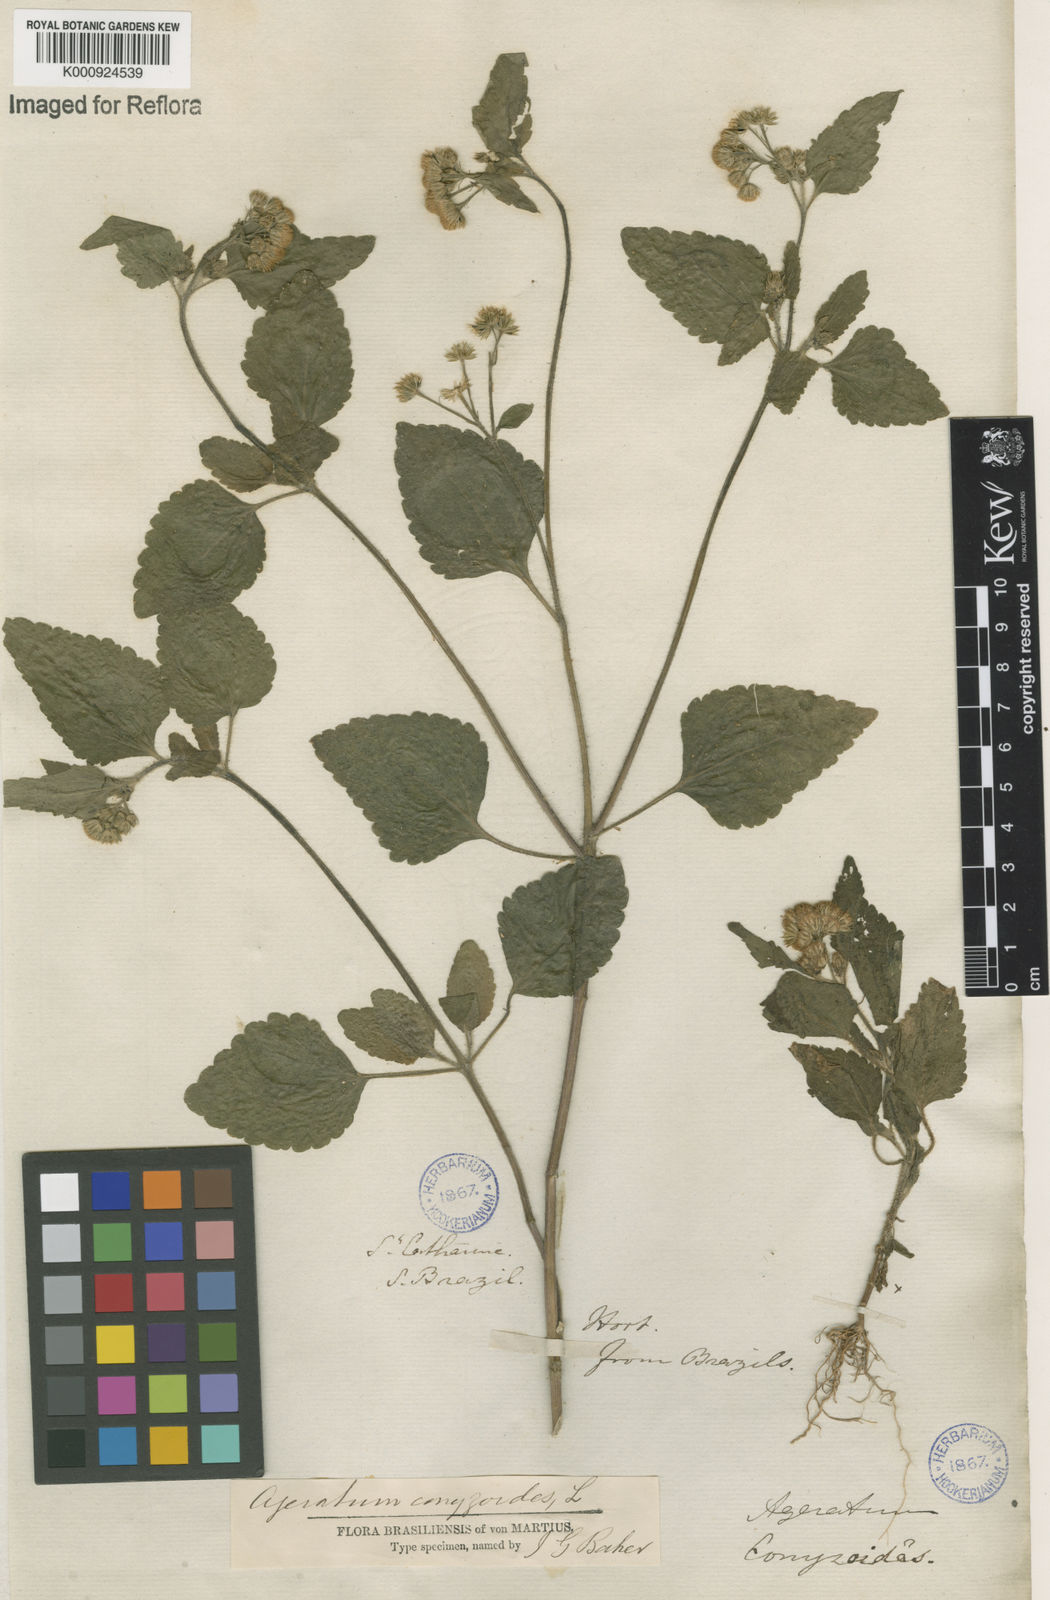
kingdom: Plantae
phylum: Tracheophyta
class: Magnoliopsida
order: Asterales
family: Asteraceae
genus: Ageratum
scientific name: Ageratum conyzoides
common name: Tropical whiteweed
